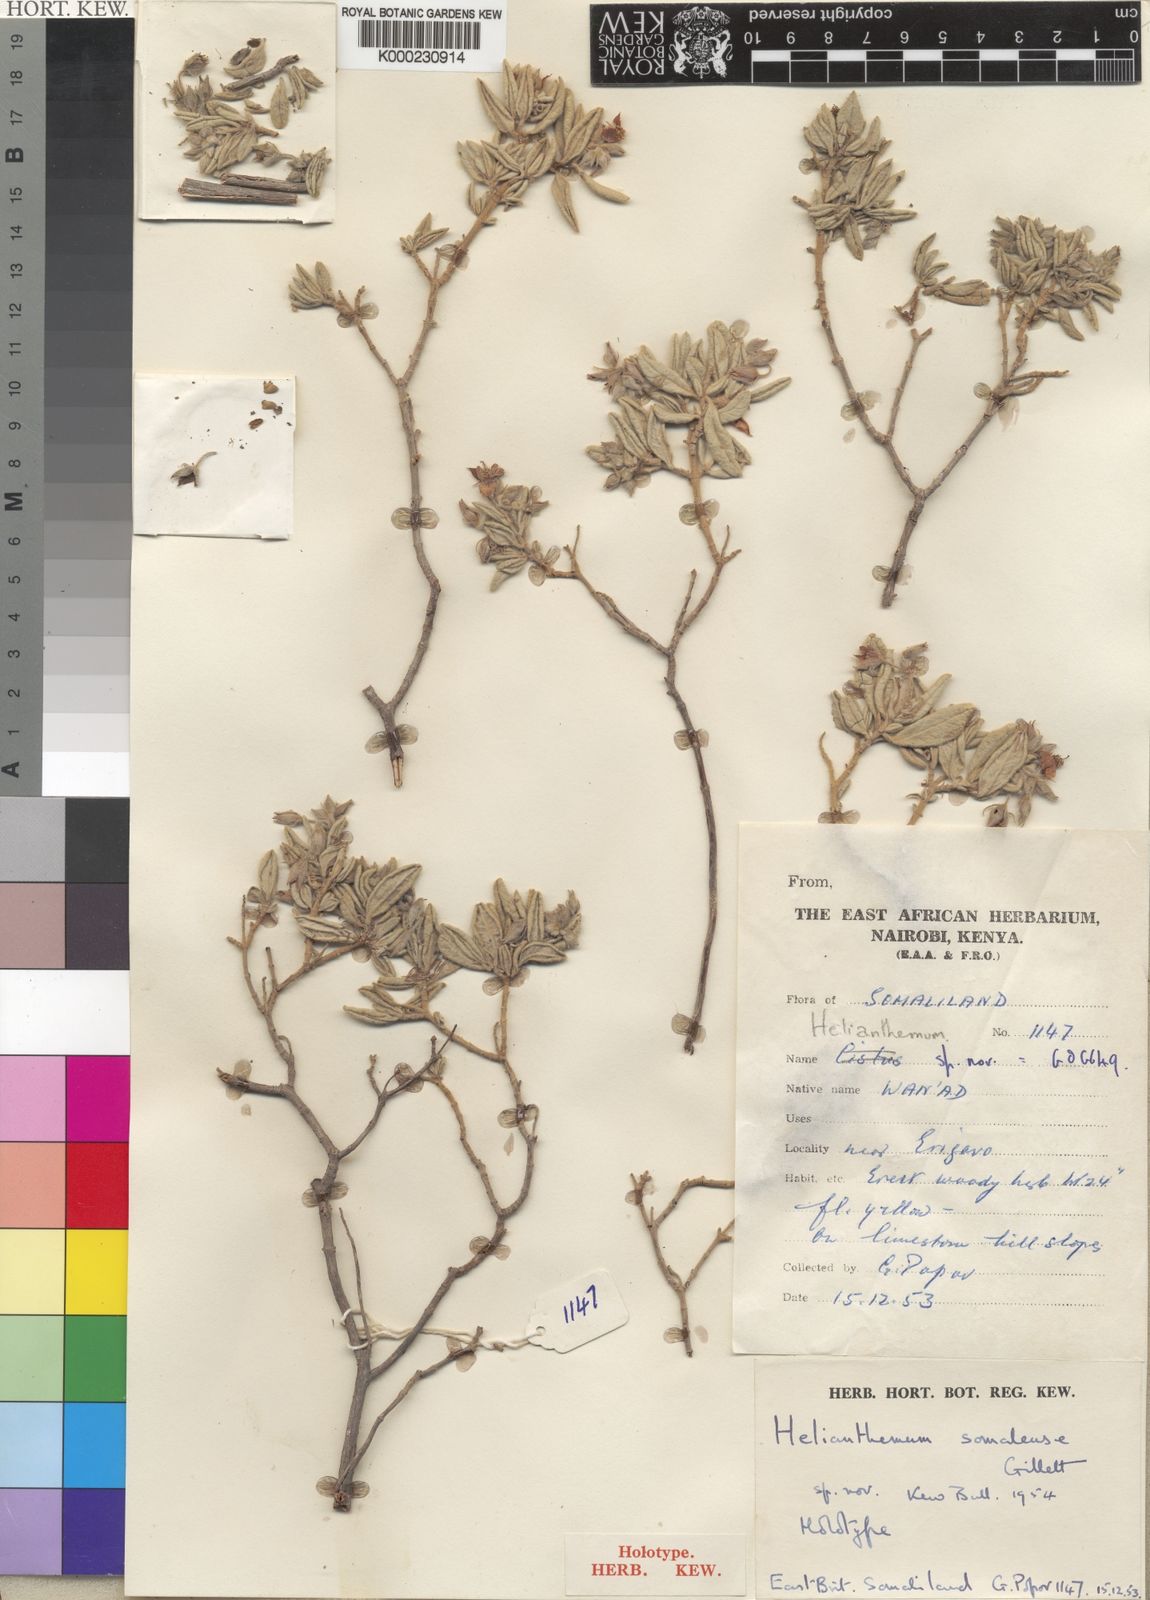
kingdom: Plantae
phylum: Tracheophyta
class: Magnoliopsida
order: Malvales
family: Cistaceae
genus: Helianthemum
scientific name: Helianthemum somalense
